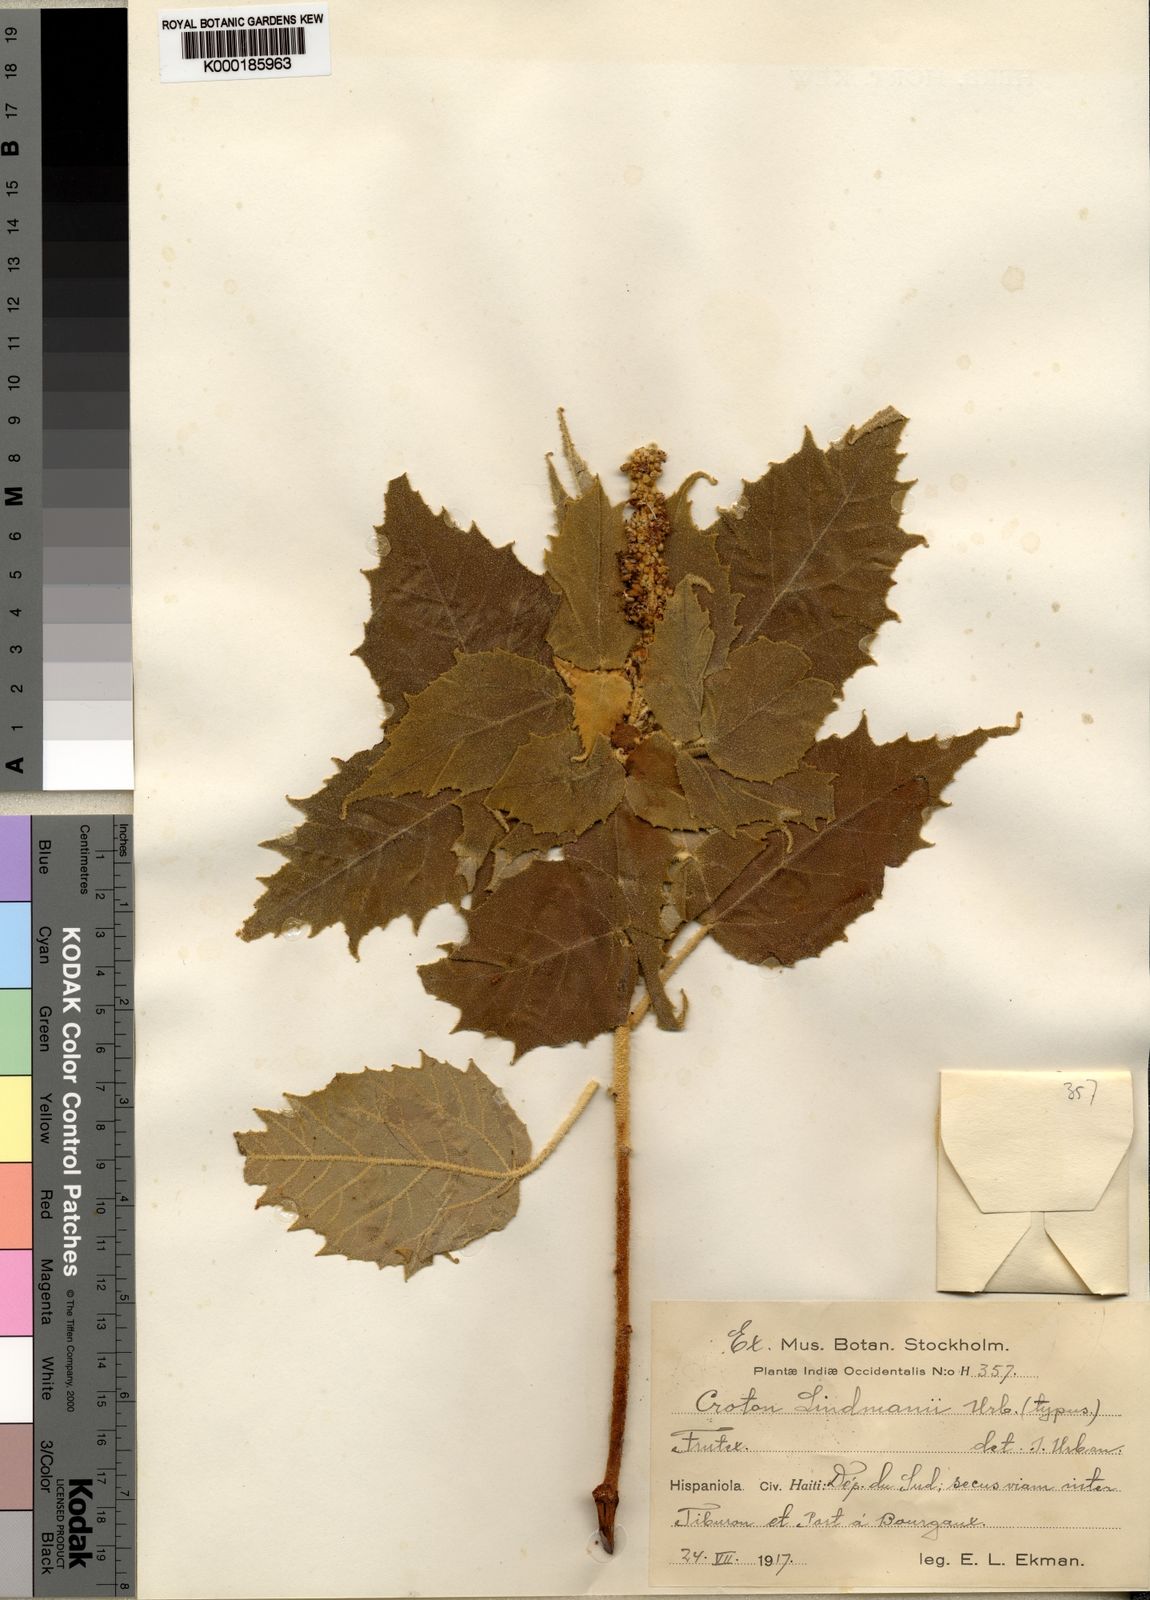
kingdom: Plantae
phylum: Tracheophyta
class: Magnoliopsida
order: Malpighiales
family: Euphorbiaceae
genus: Croton
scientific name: Croton lindmanii
